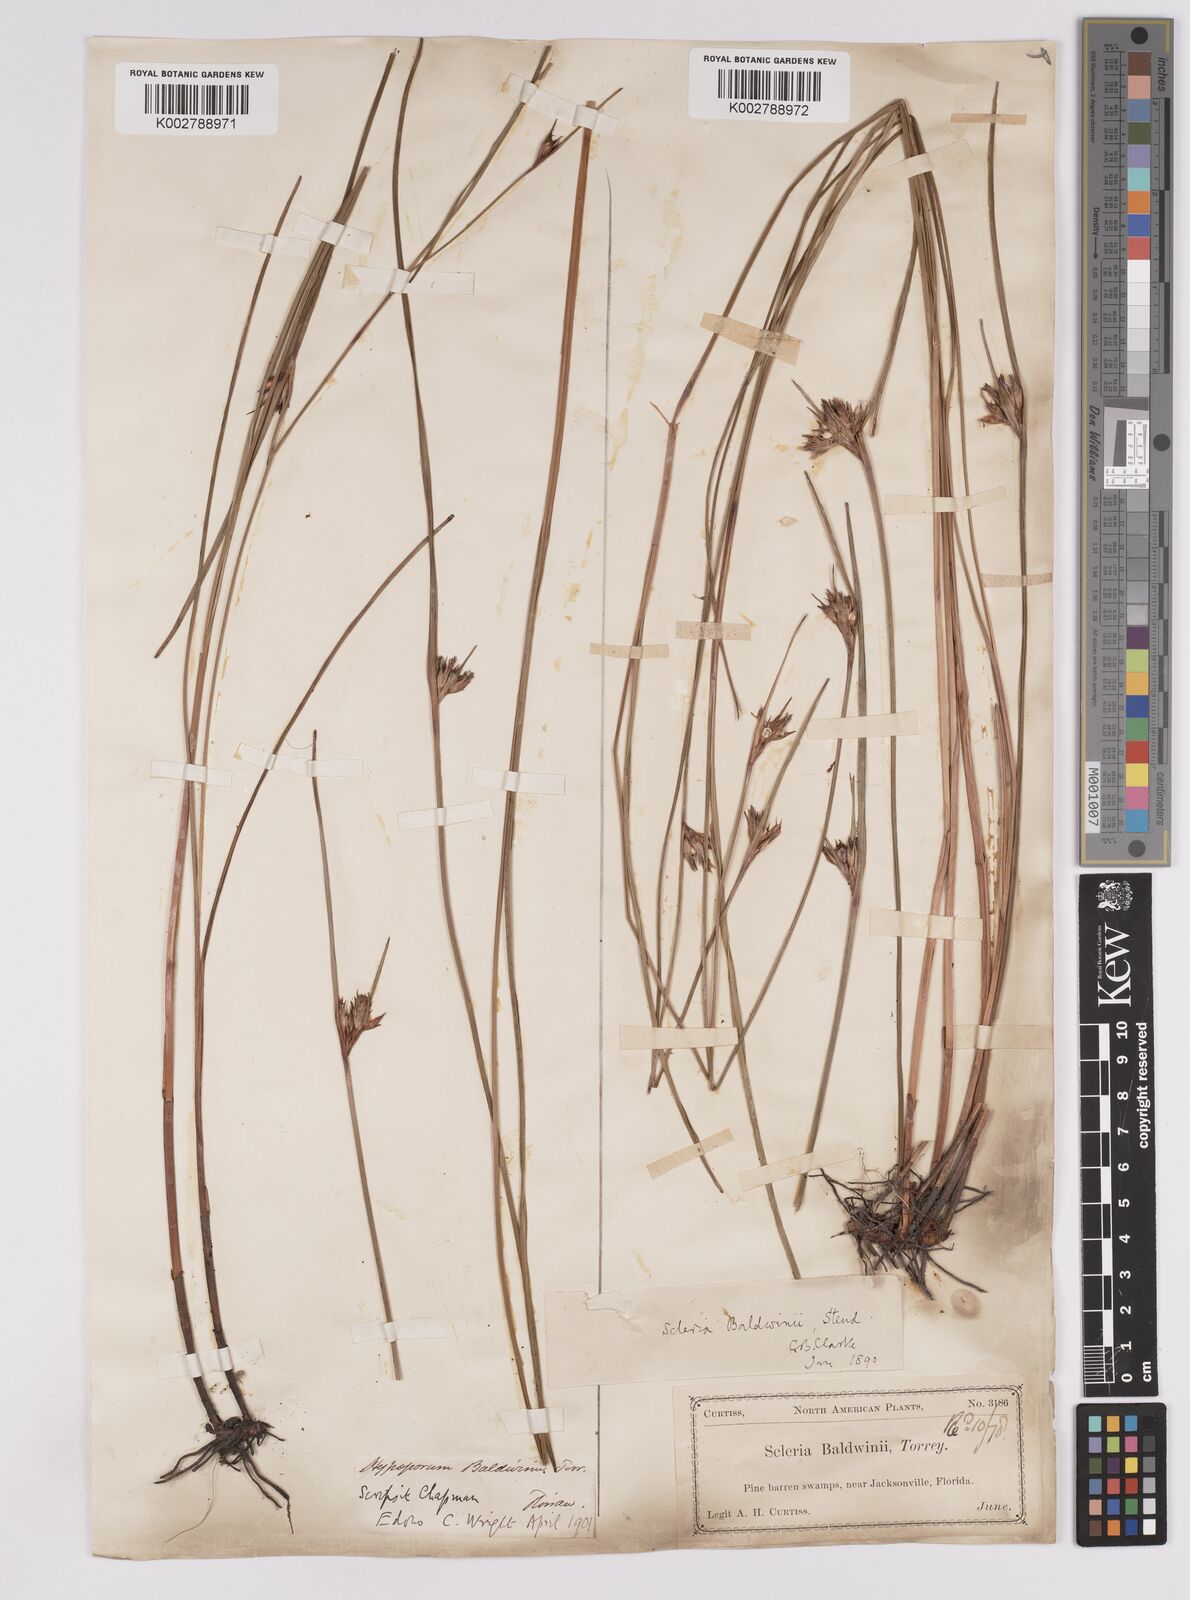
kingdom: Plantae
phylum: Tracheophyta
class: Liliopsida
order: Poales
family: Cyperaceae
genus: Scleria
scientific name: Scleria baldwinii
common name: Baldwin's nutrush
